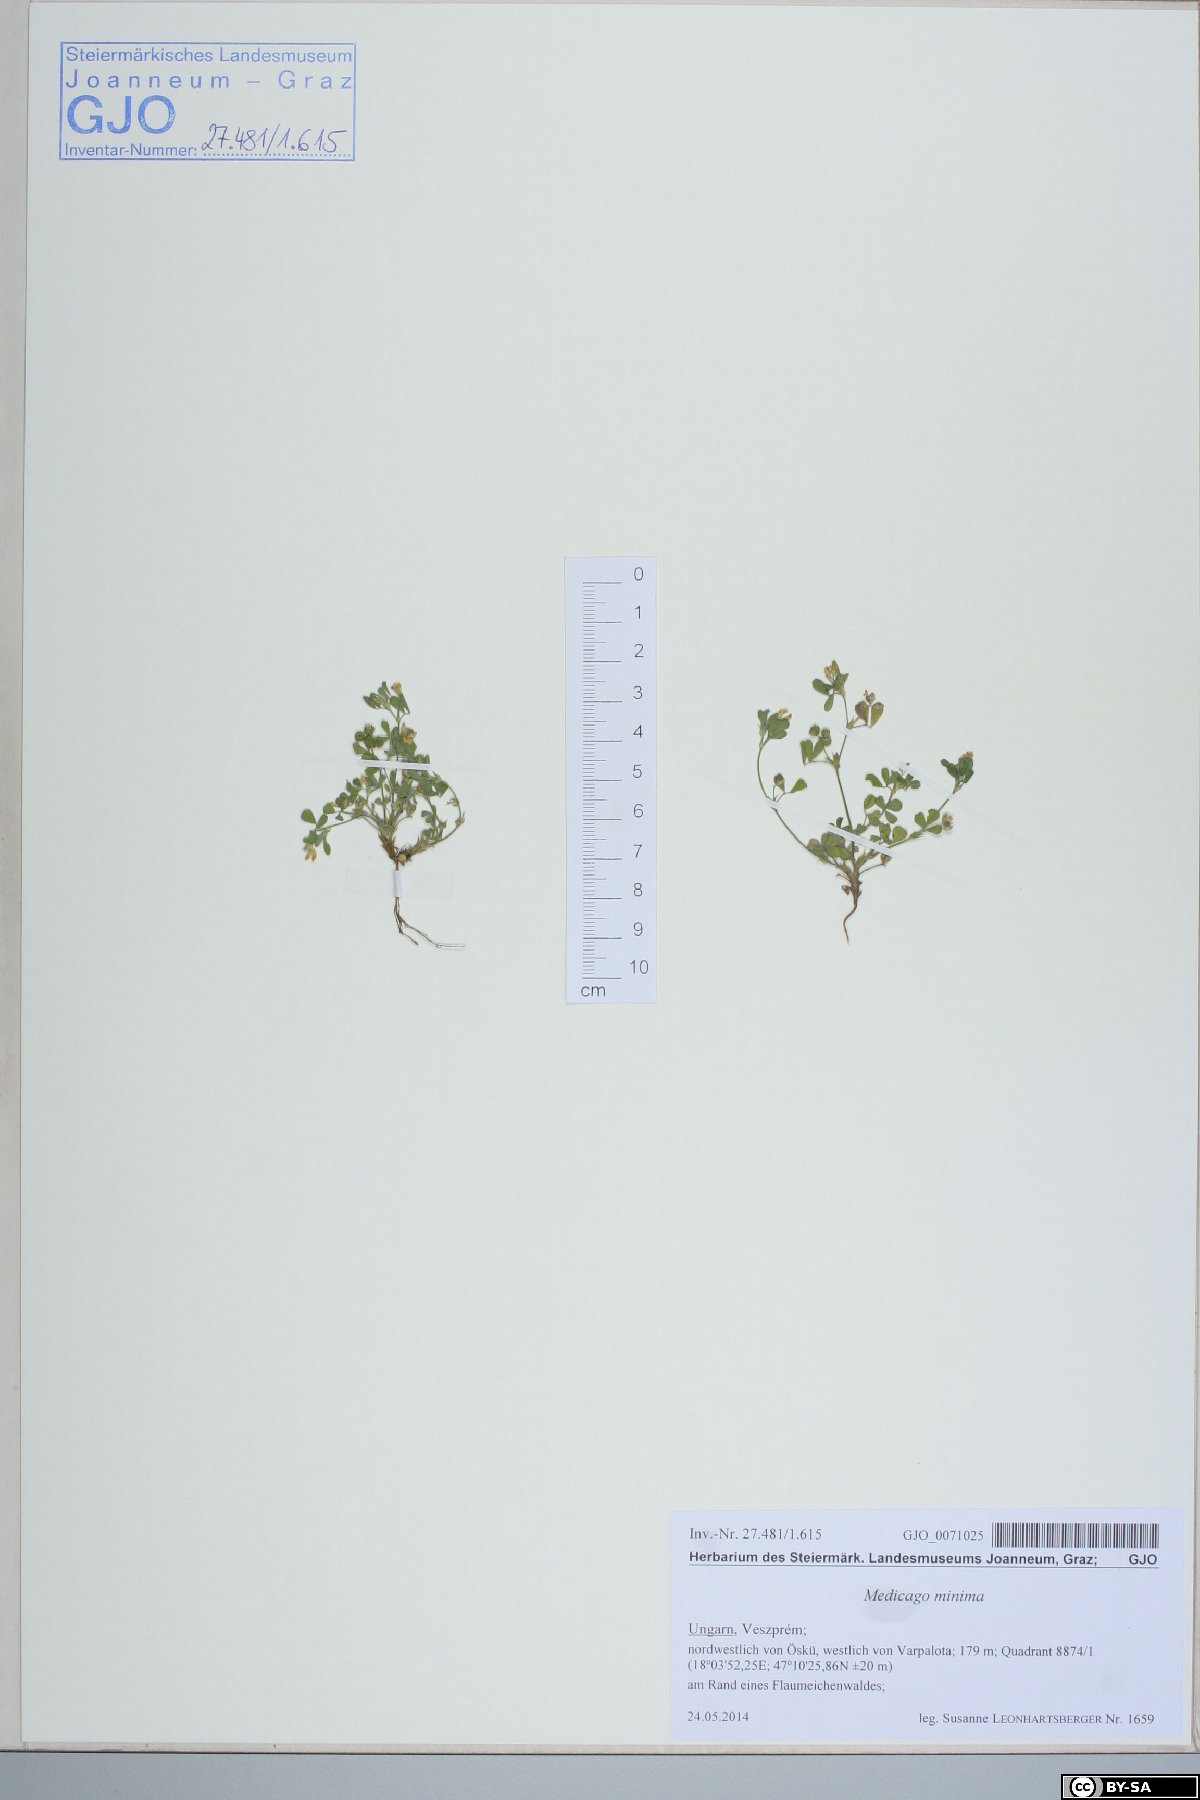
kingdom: Plantae
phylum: Tracheophyta
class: Magnoliopsida
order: Fabales
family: Fabaceae
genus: Medicago
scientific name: Medicago minima
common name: Little bur-clover
